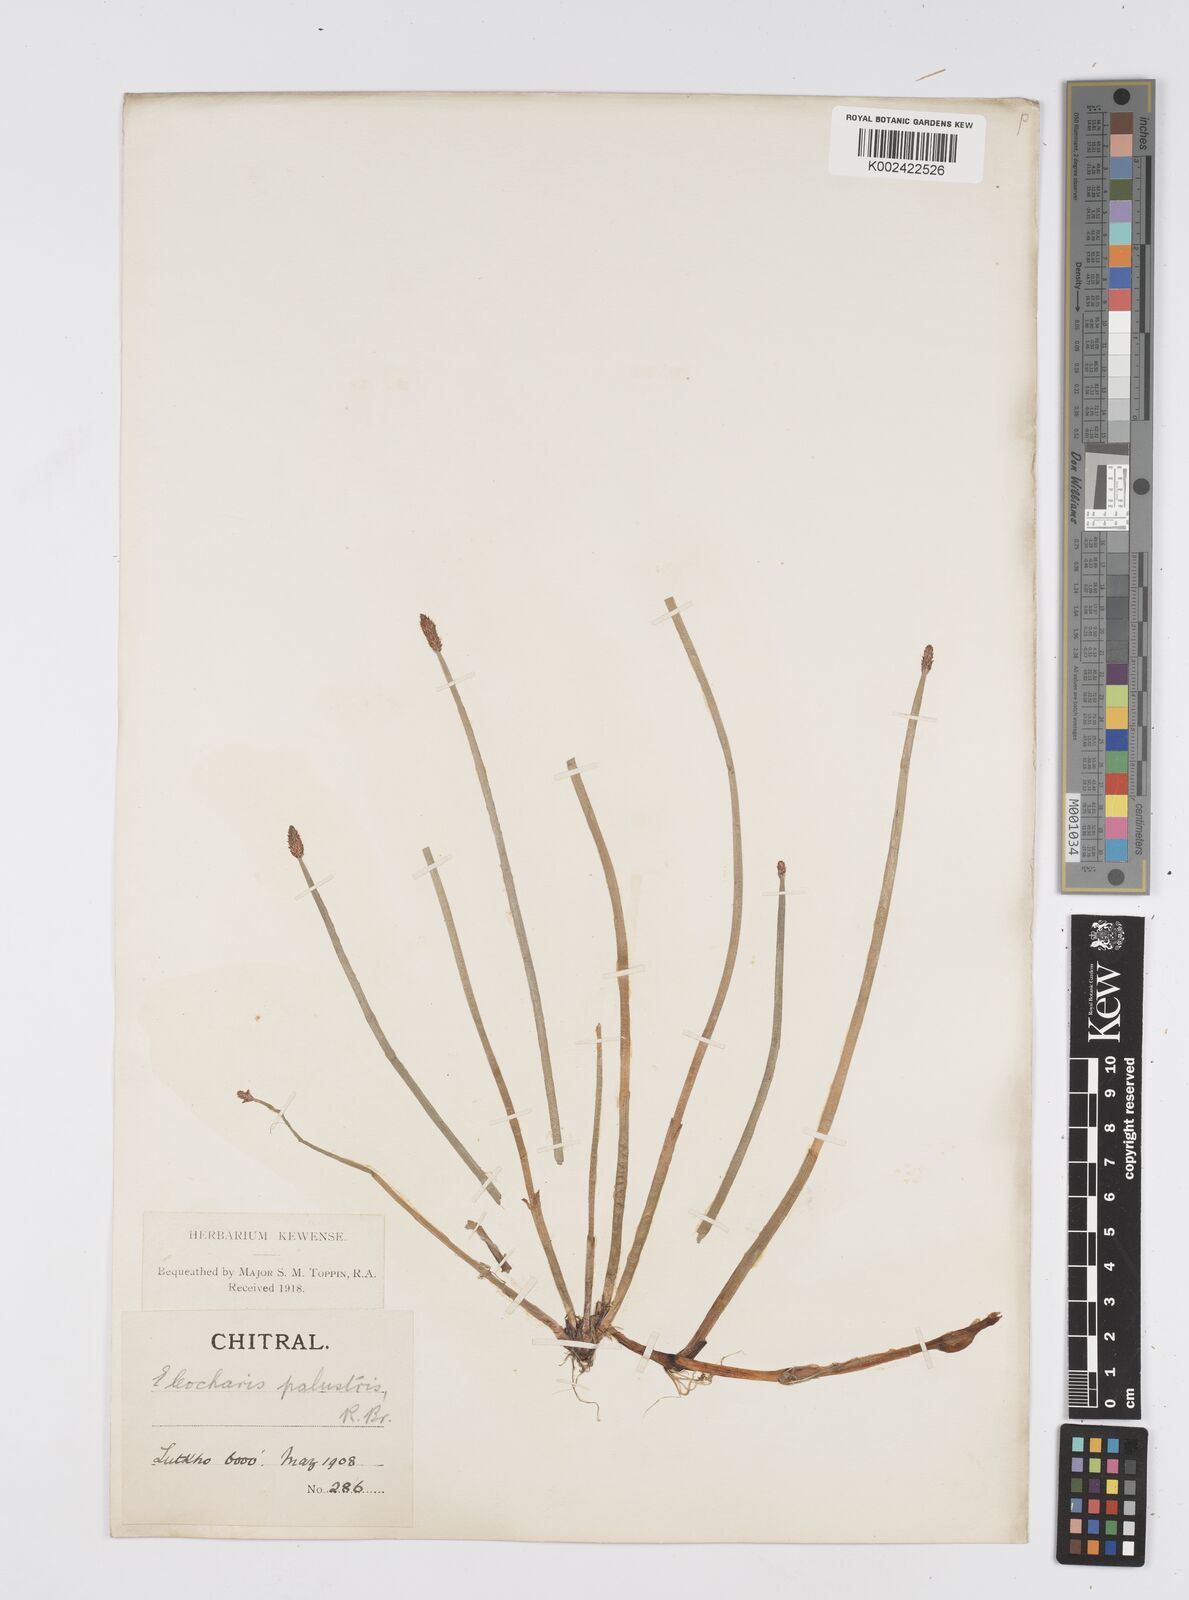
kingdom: Plantae
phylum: Tracheophyta
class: Liliopsida
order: Poales
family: Cyperaceae
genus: Eleocharis
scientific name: Eleocharis palustris
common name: Common spike-rush
